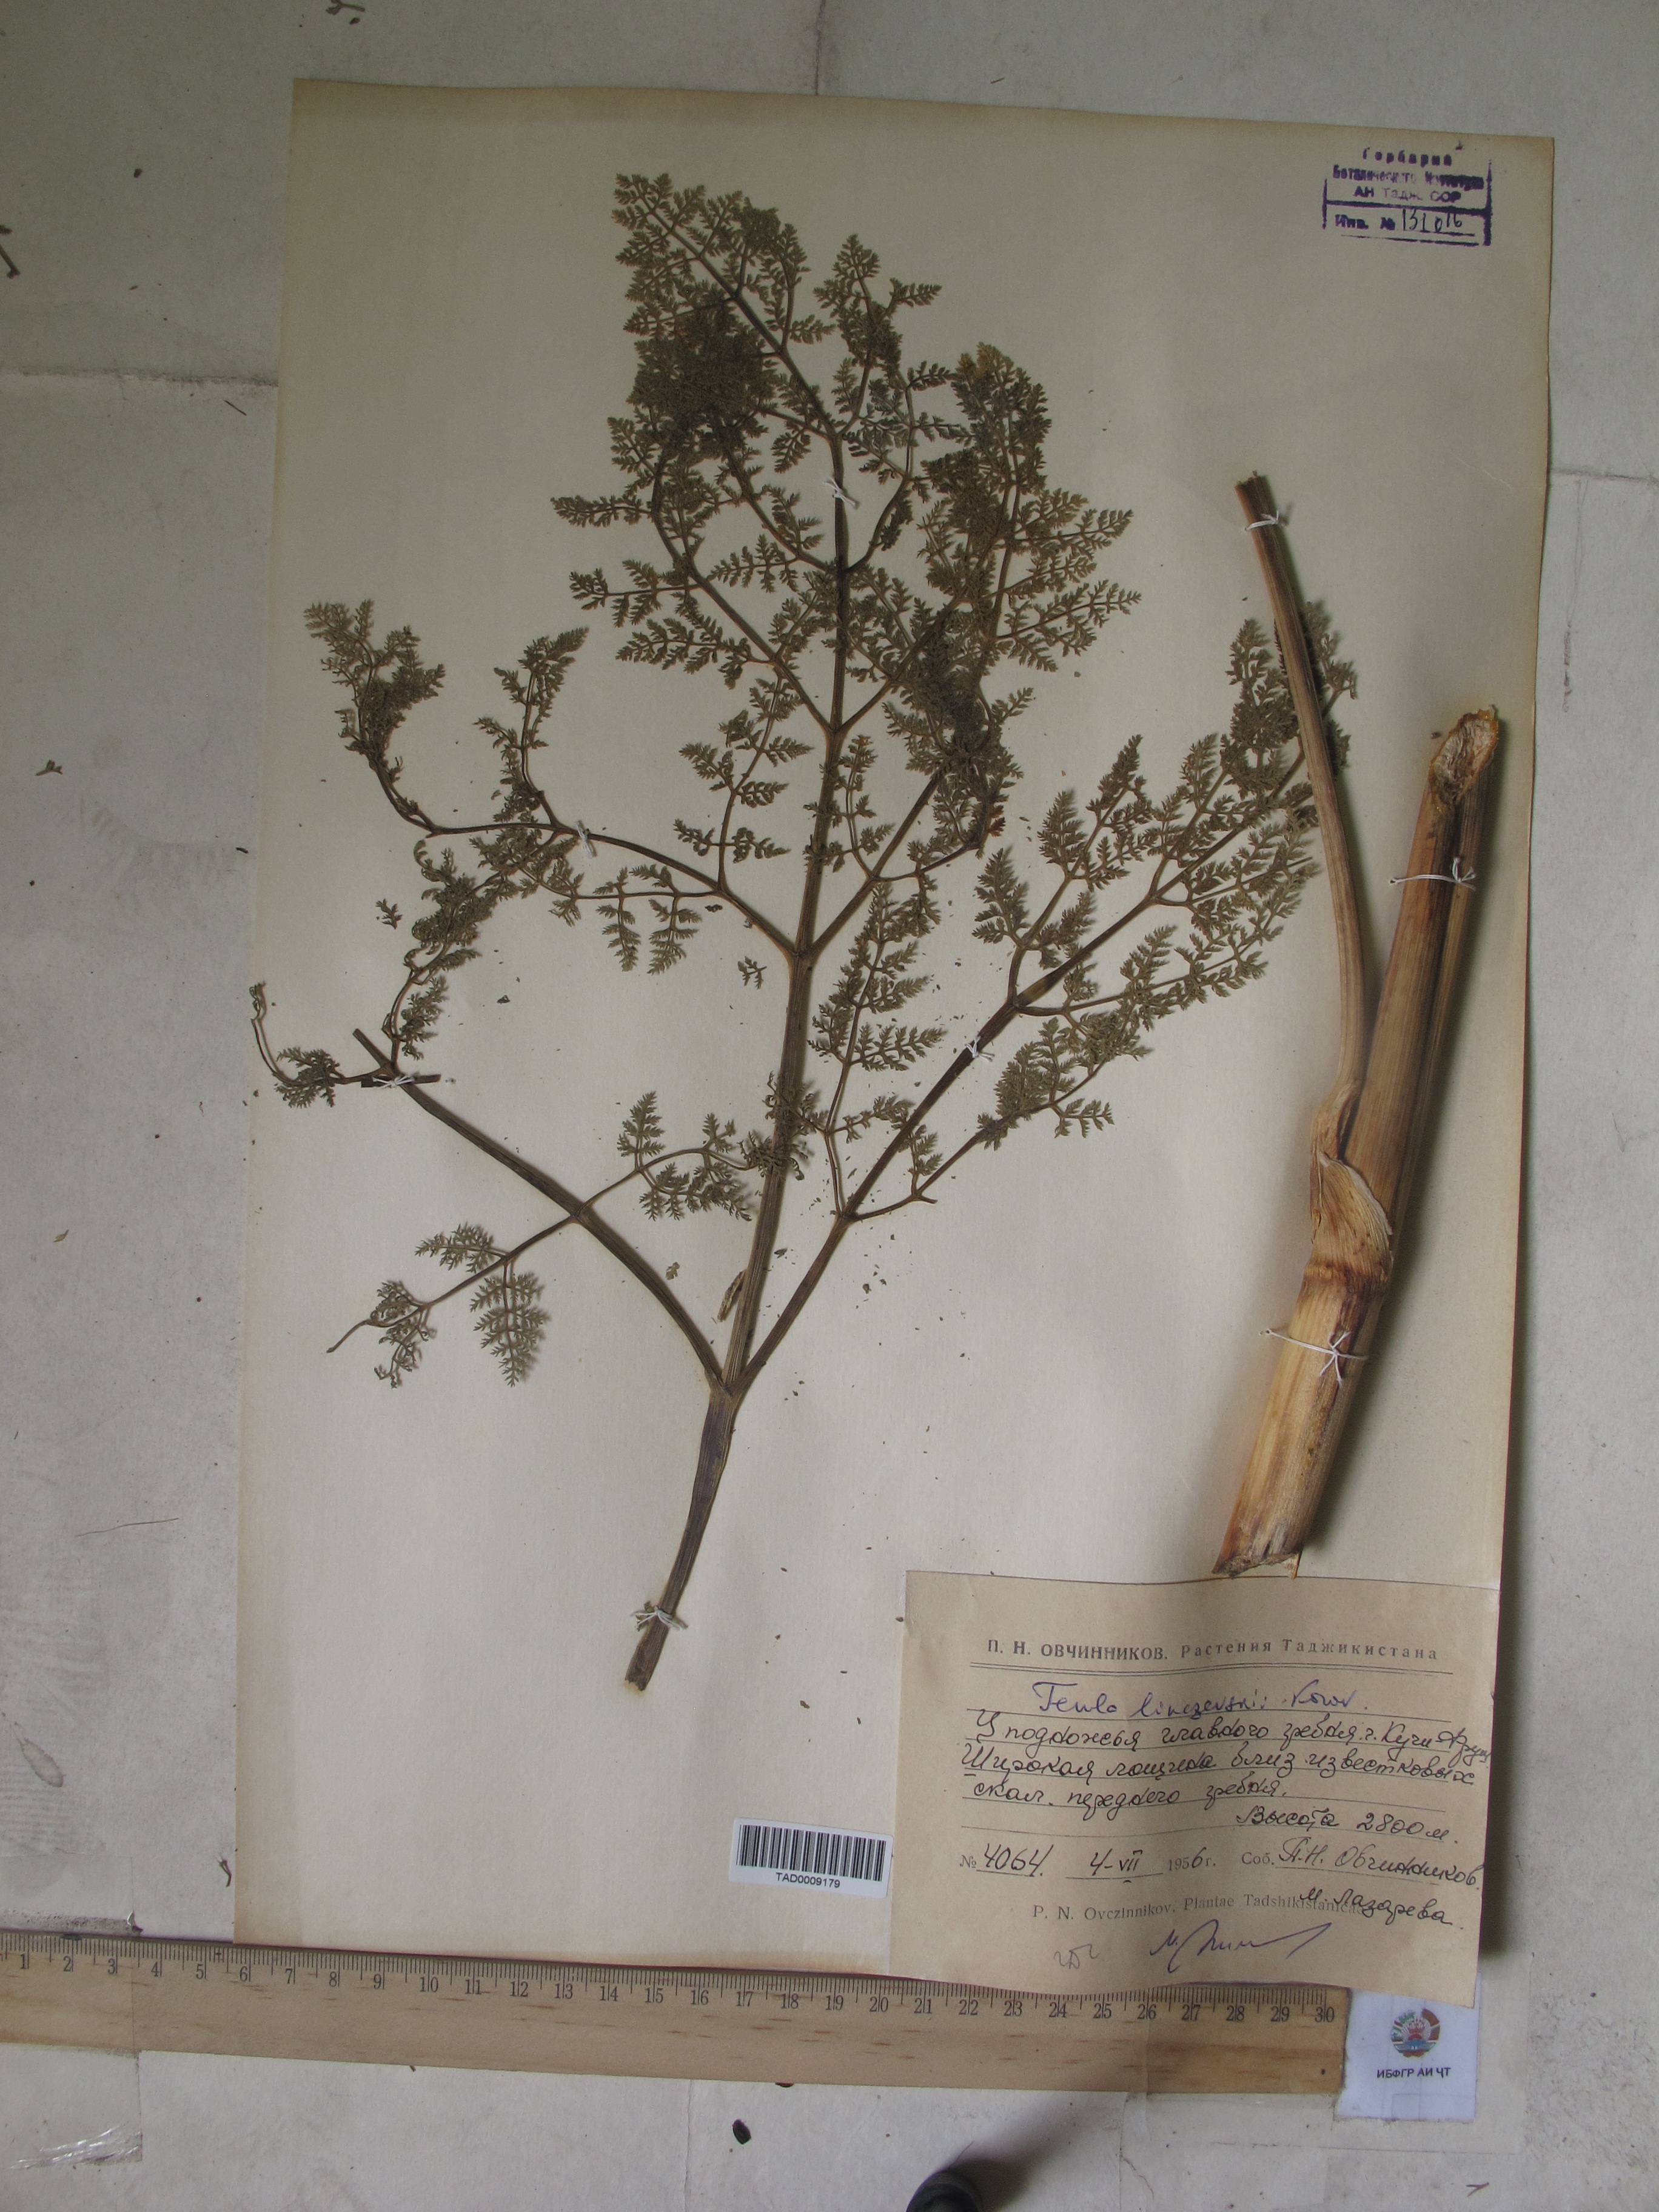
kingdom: Plantae
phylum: Tracheophyta
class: Magnoliopsida
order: Apiales
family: Apiaceae
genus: Ferula
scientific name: Ferula linczevskii
